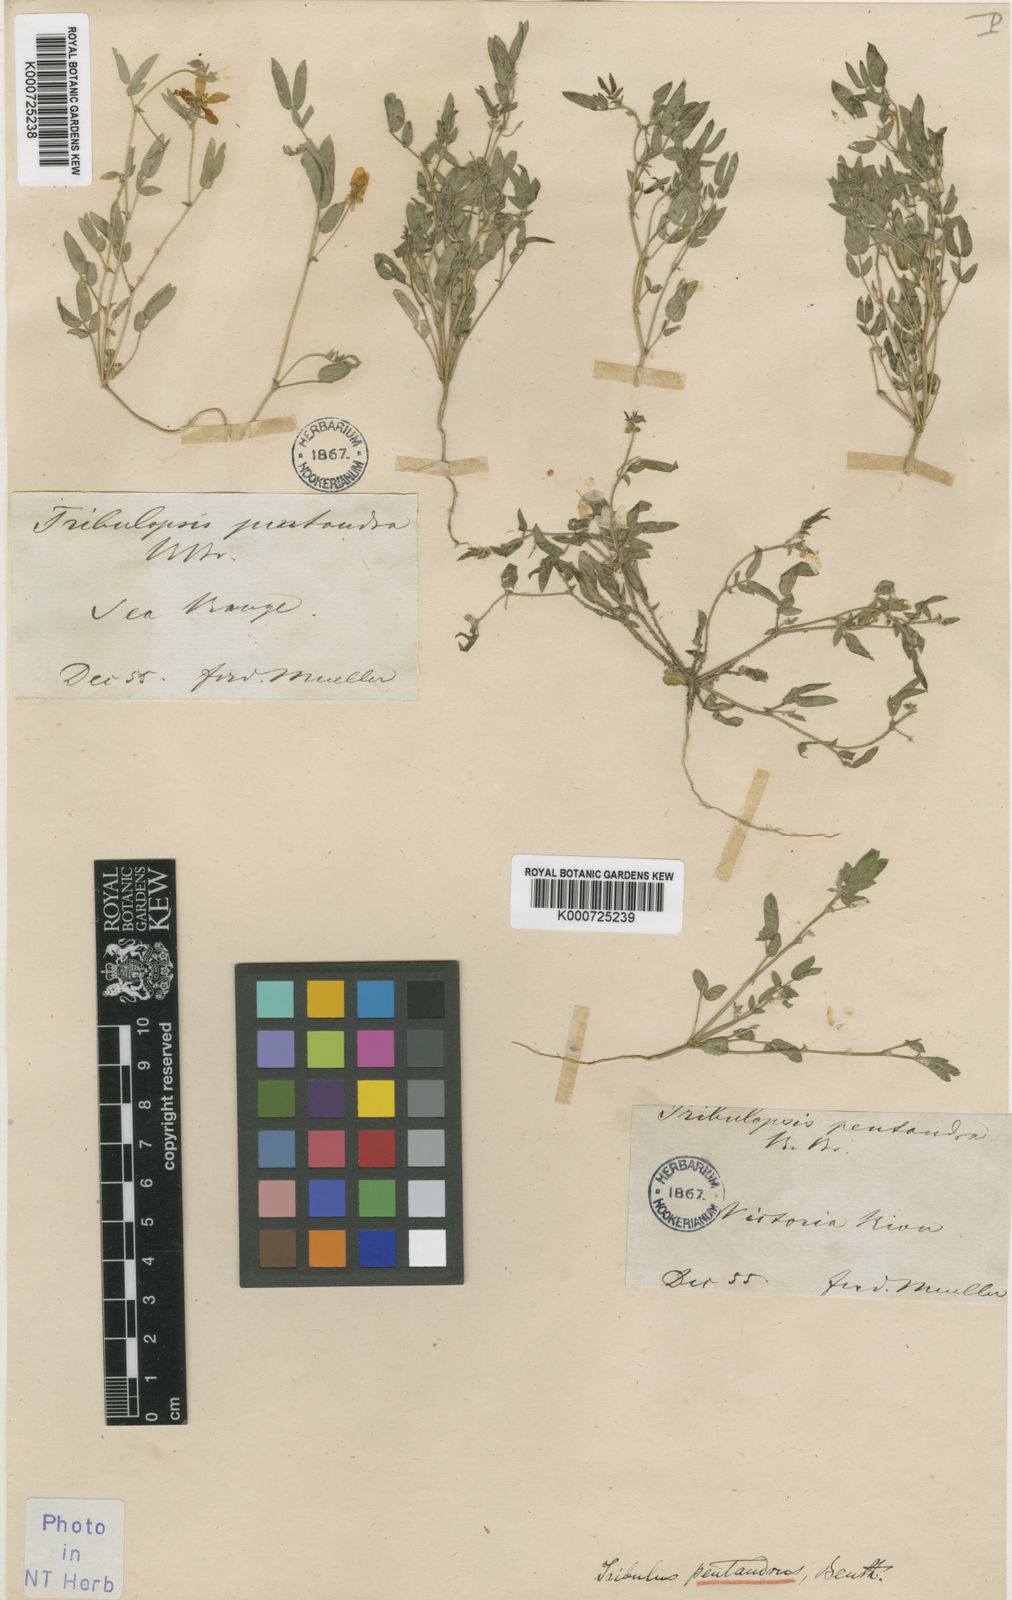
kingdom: Plantae
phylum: Tracheophyta
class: Magnoliopsida
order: Zygophyllales
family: Zygophyllaceae
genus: Tribulopis
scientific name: Tribulopis pentandra
